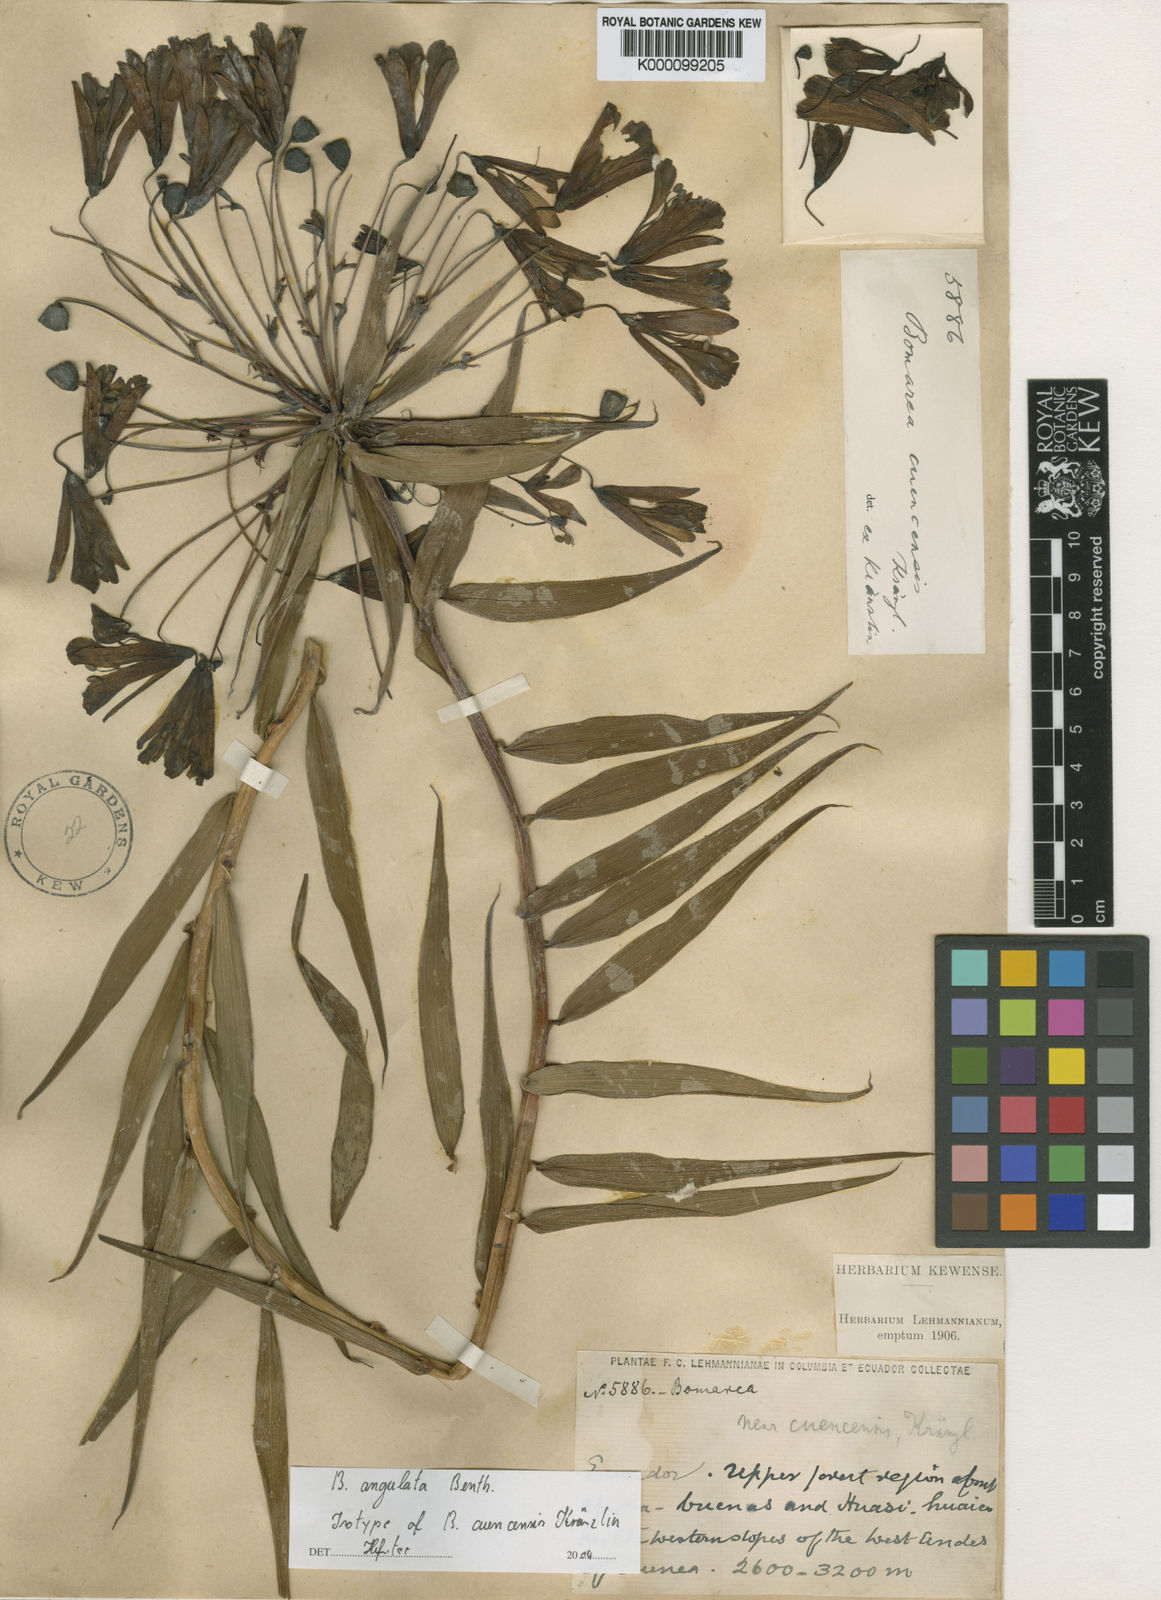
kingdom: Plantae
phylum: Tracheophyta
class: Liliopsida
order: Liliales
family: Alstroemeriaceae
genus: Bomarea
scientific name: Bomarea angulata
